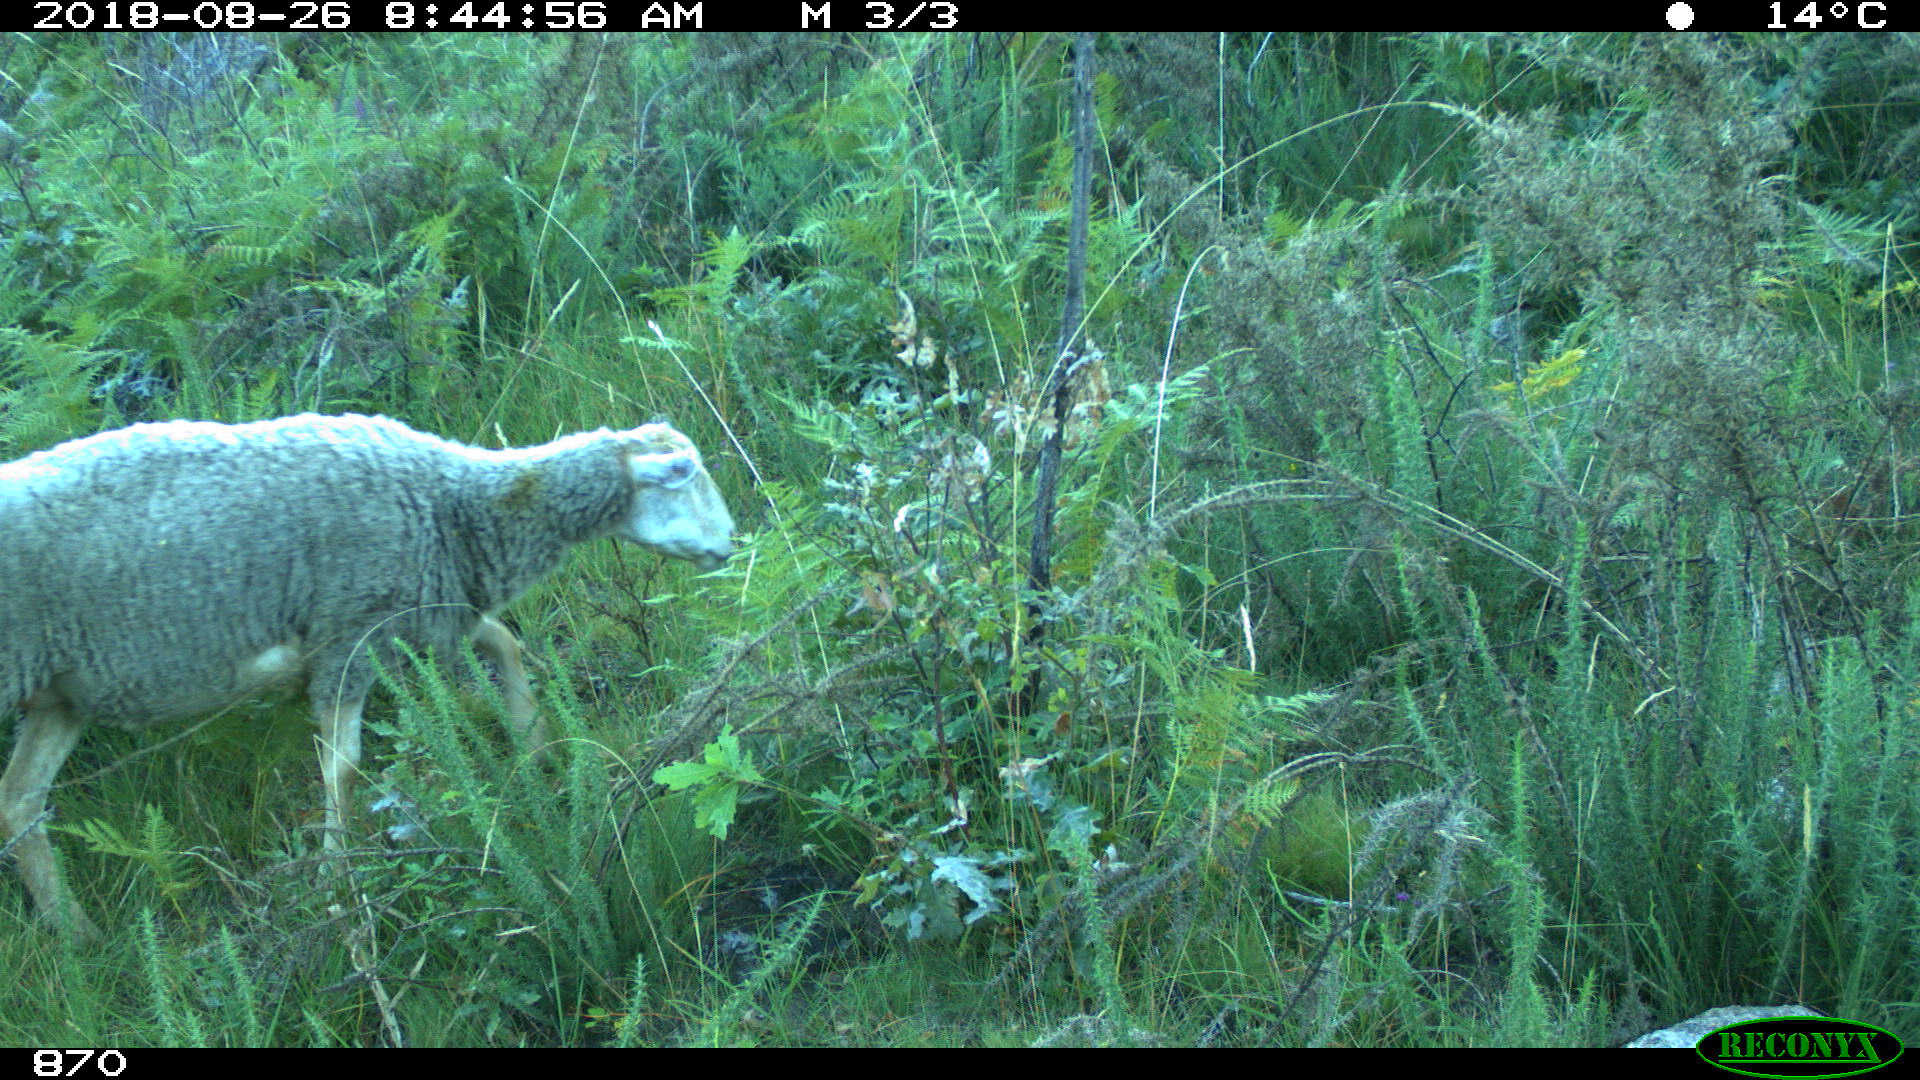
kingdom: Animalia
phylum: Chordata
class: Mammalia
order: Artiodactyla
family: Bovidae
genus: Ovis
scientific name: Ovis aries
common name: Domestic sheep
